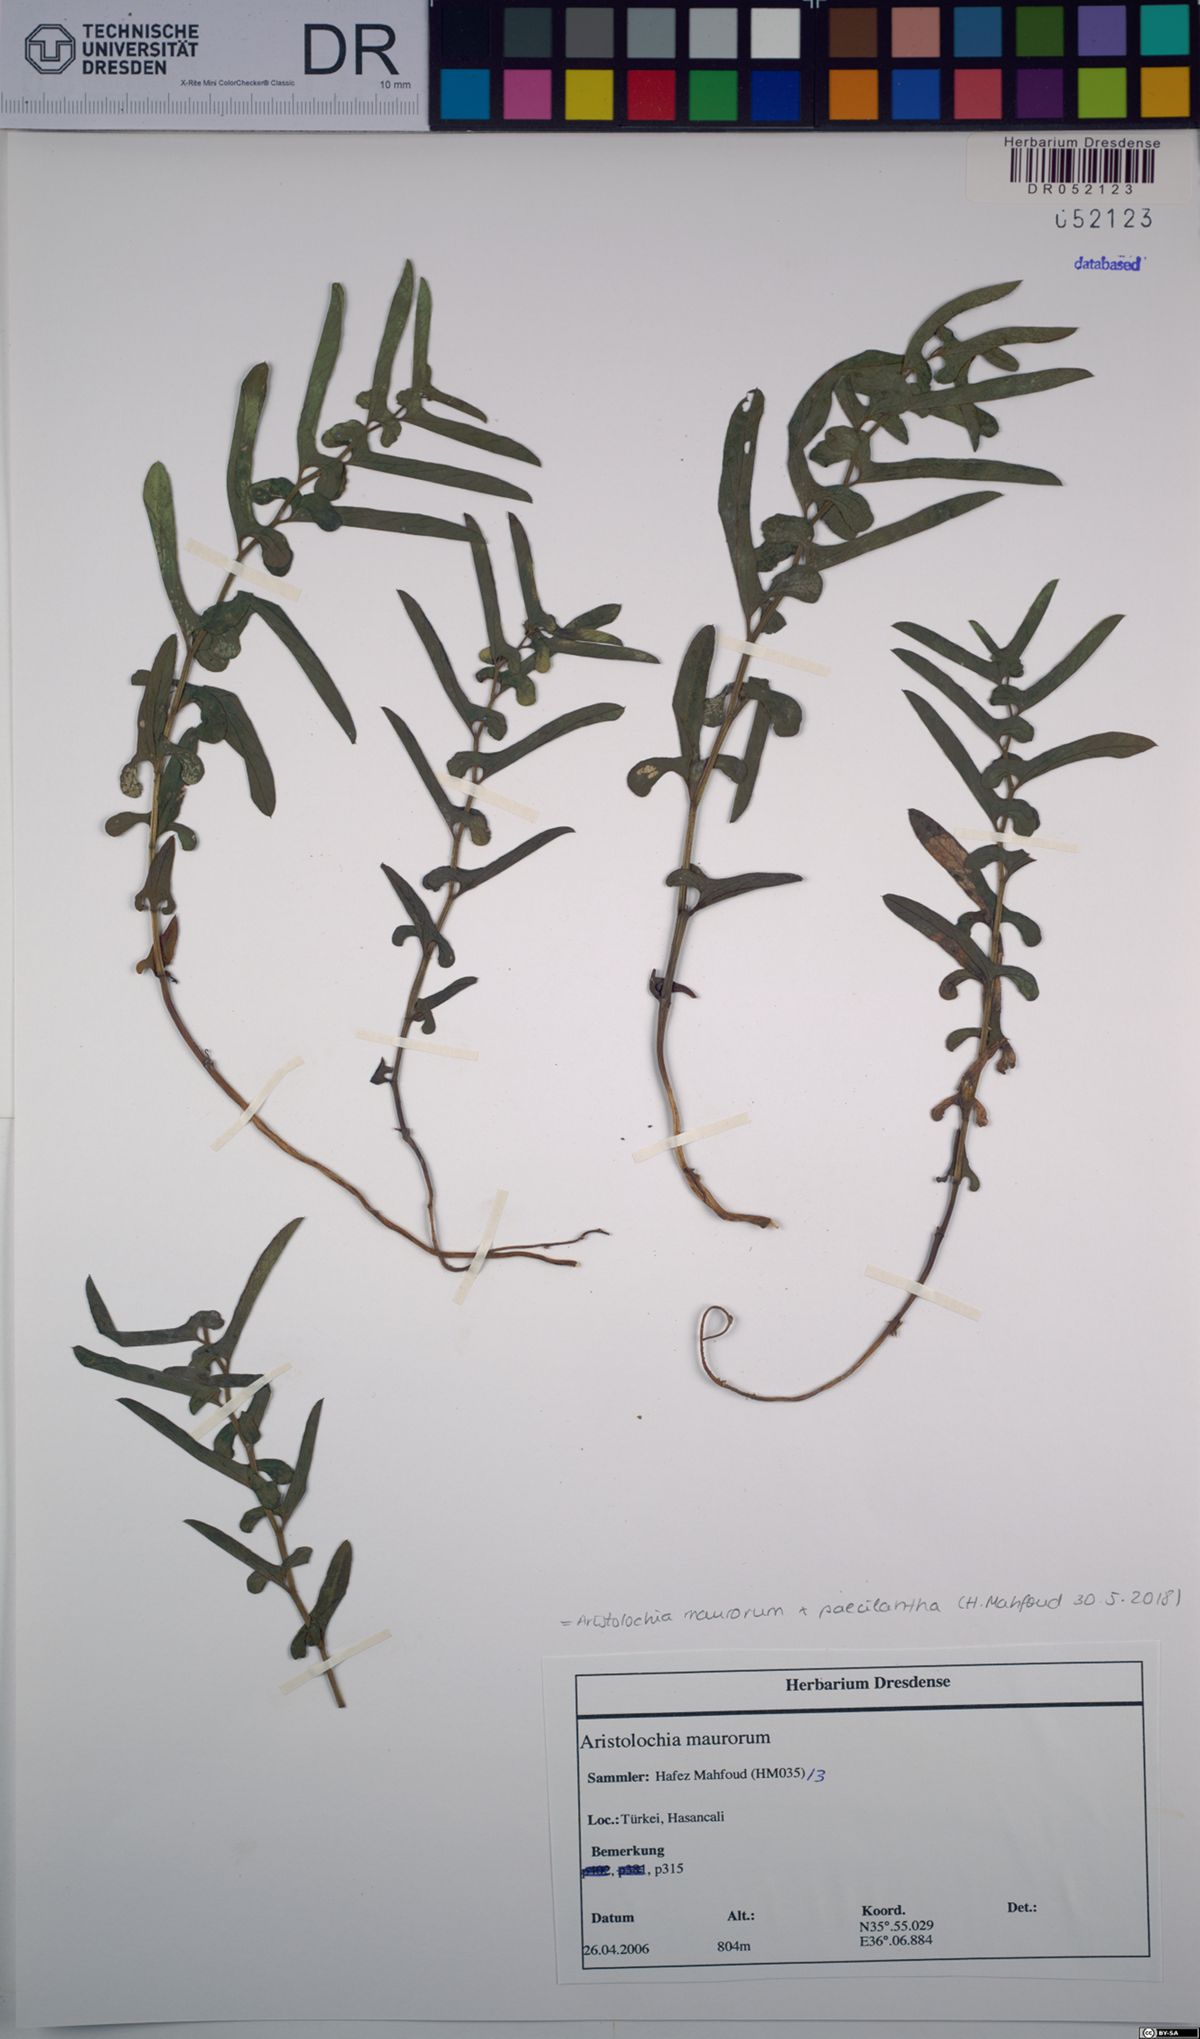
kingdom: Plantae
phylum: Tracheophyta
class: Magnoliopsida
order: Piperales
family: Aristolochiaceae
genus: Aristolochia
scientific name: Aristolochia maurorum
